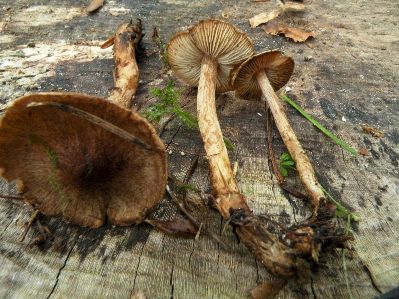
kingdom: Fungi
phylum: Basidiomycota
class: Agaricomycetes
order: Agaricales
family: Inocybaceae
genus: Inocybe
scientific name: Inocybe soluta
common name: lysbladet trævlhat
